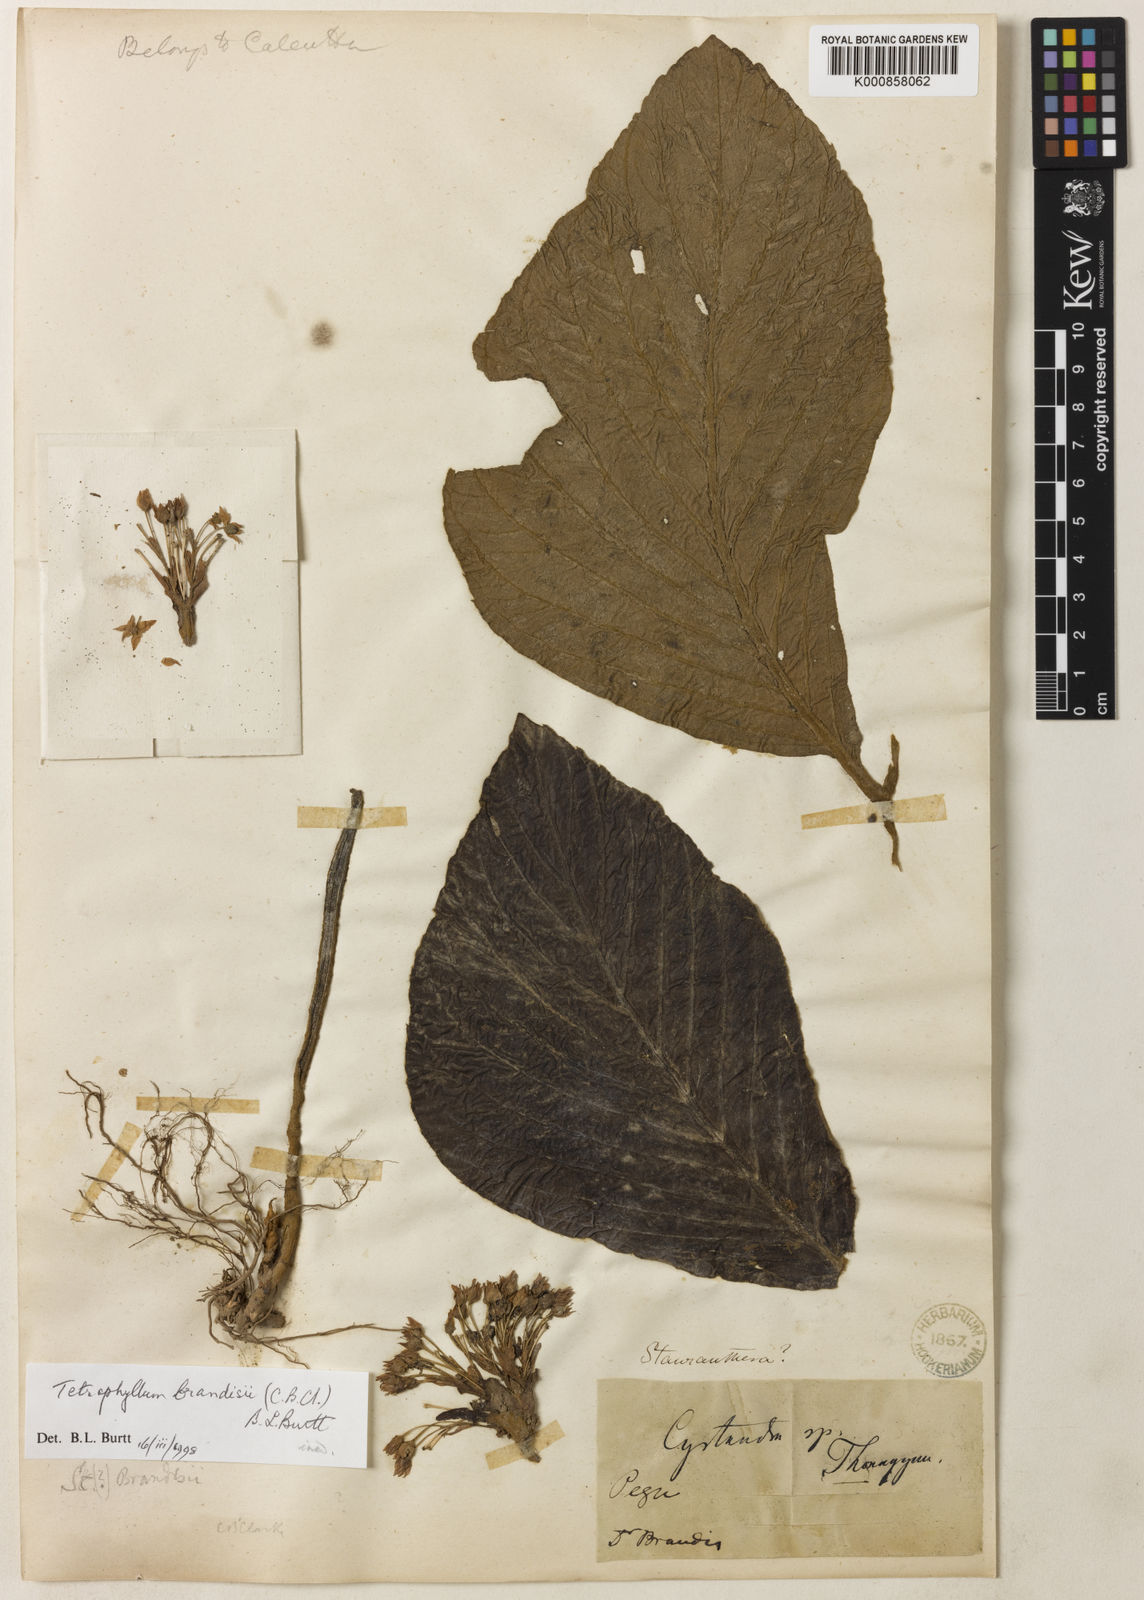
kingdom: Plantae
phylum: Tracheophyta
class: Magnoliopsida
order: Lamiales
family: Gesneriaceae
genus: Tetraphyllum
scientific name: Tetraphyllum
